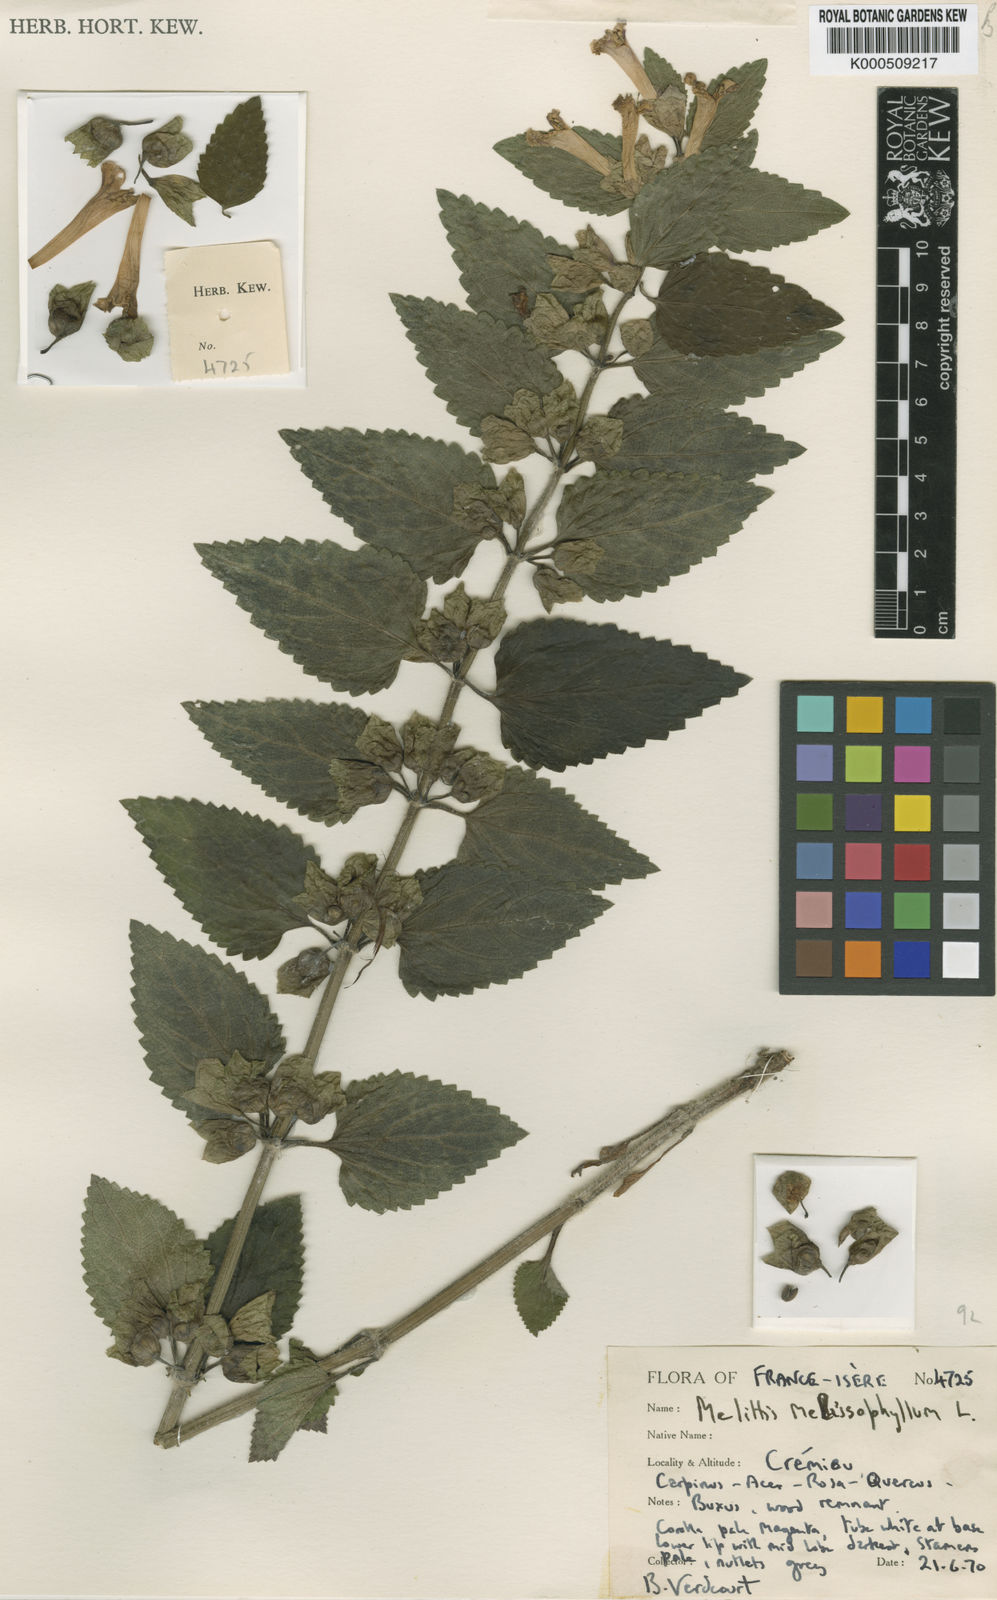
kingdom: Plantae
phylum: Tracheophyta
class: Magnoliopsida
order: Lamiales
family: Lamiaceae
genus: Melittis
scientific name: Melittis melissophyllum
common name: Bastard balm
